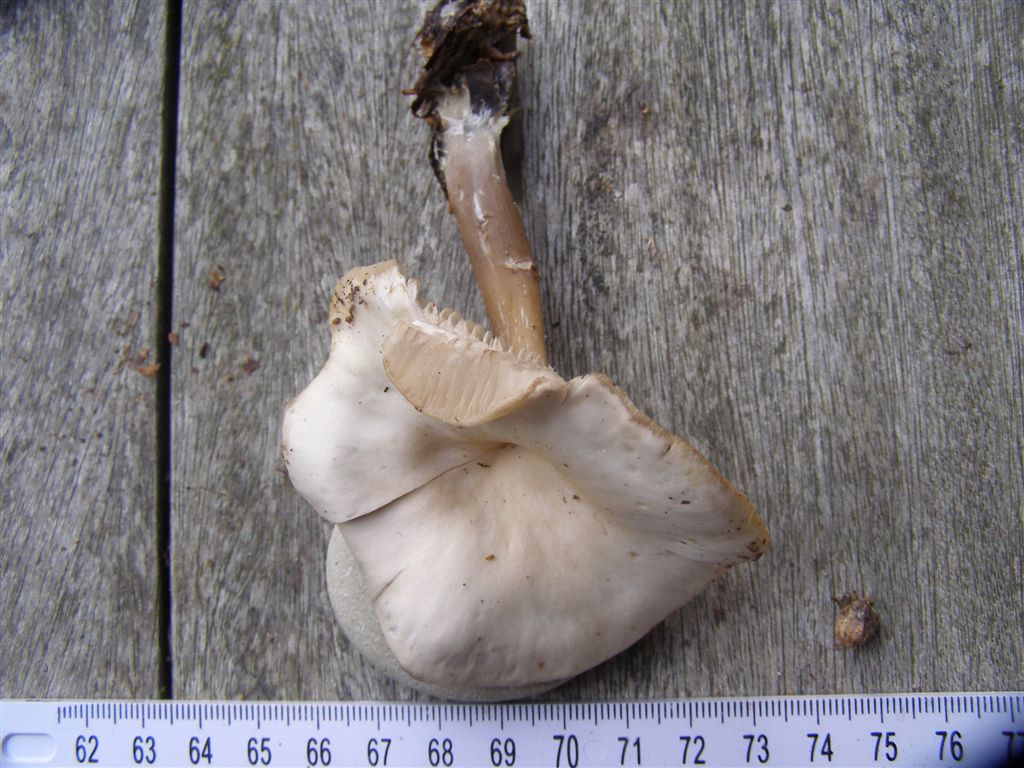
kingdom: Fungi
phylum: Basidiomycota
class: Agaricomycetes
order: Agaricales
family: Tricholomataceae
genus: Clitocybe
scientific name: Clitocybe phaeophthalma
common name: stinkende tragthat
